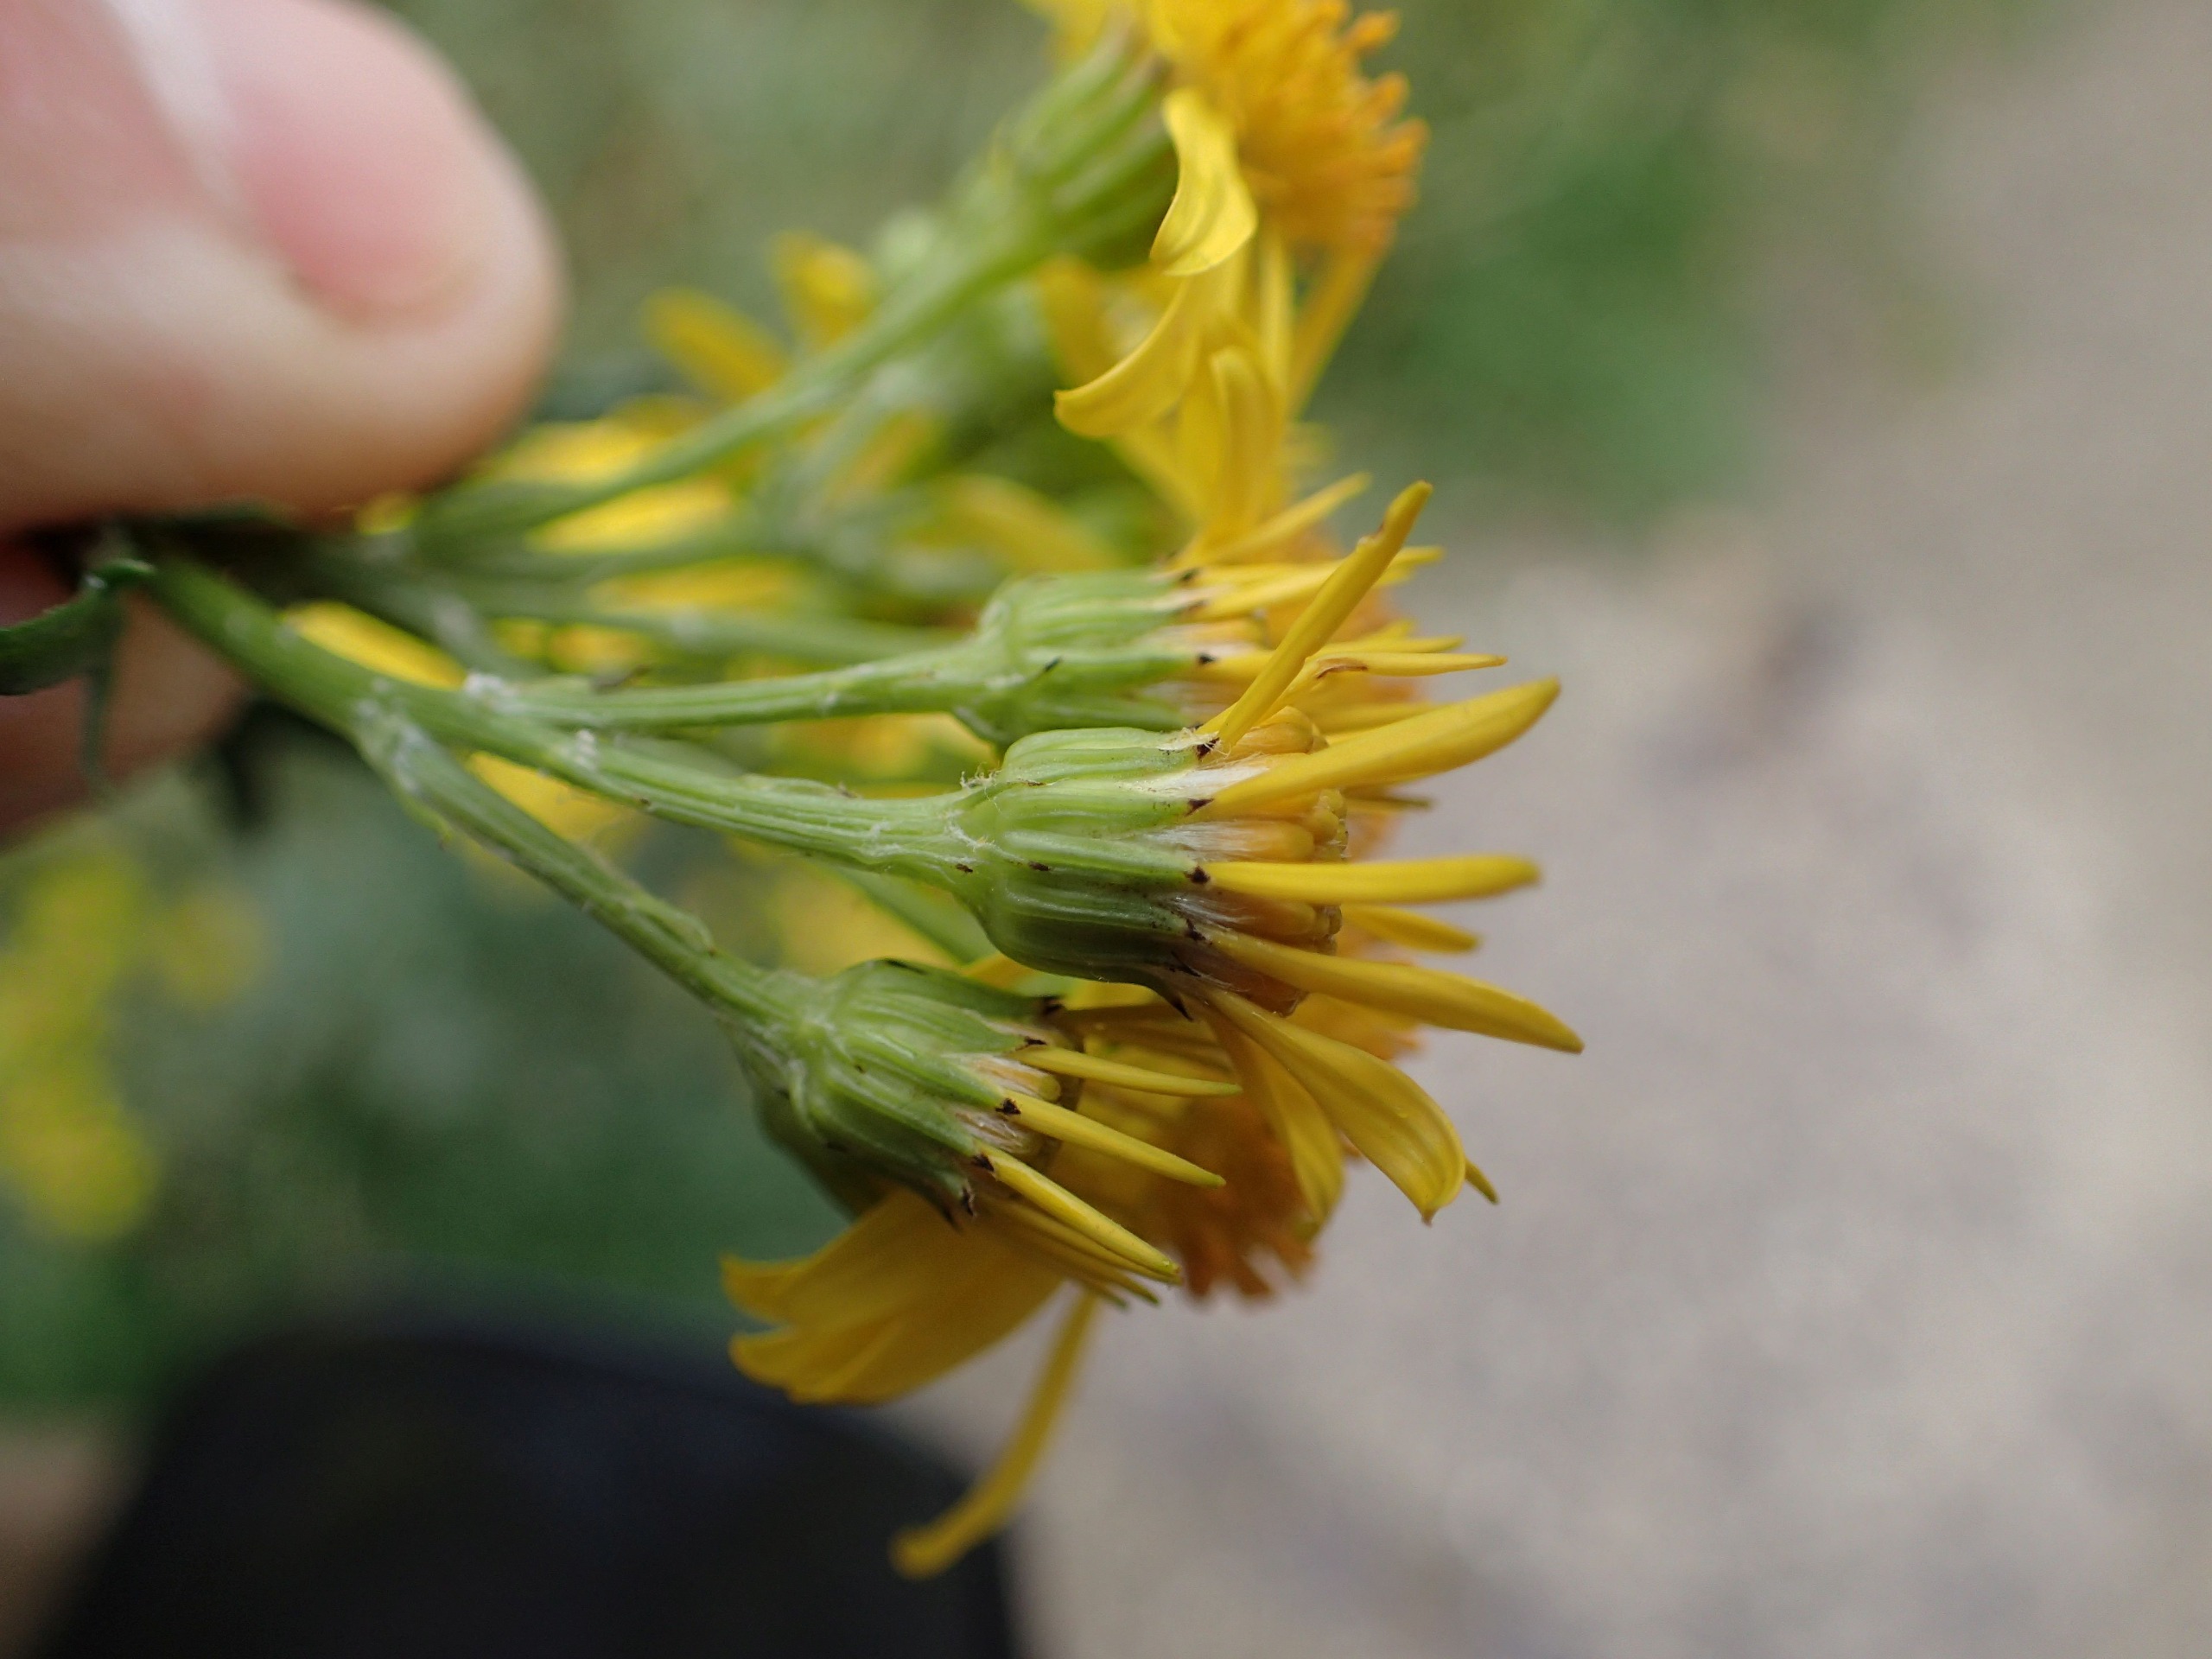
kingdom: Plantae
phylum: Tracheophyta
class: Magnoliopsida
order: Asterales
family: Asteraceae
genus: Jacobaea
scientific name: Jacobaea vulgaris
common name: Eng-brandbæger
